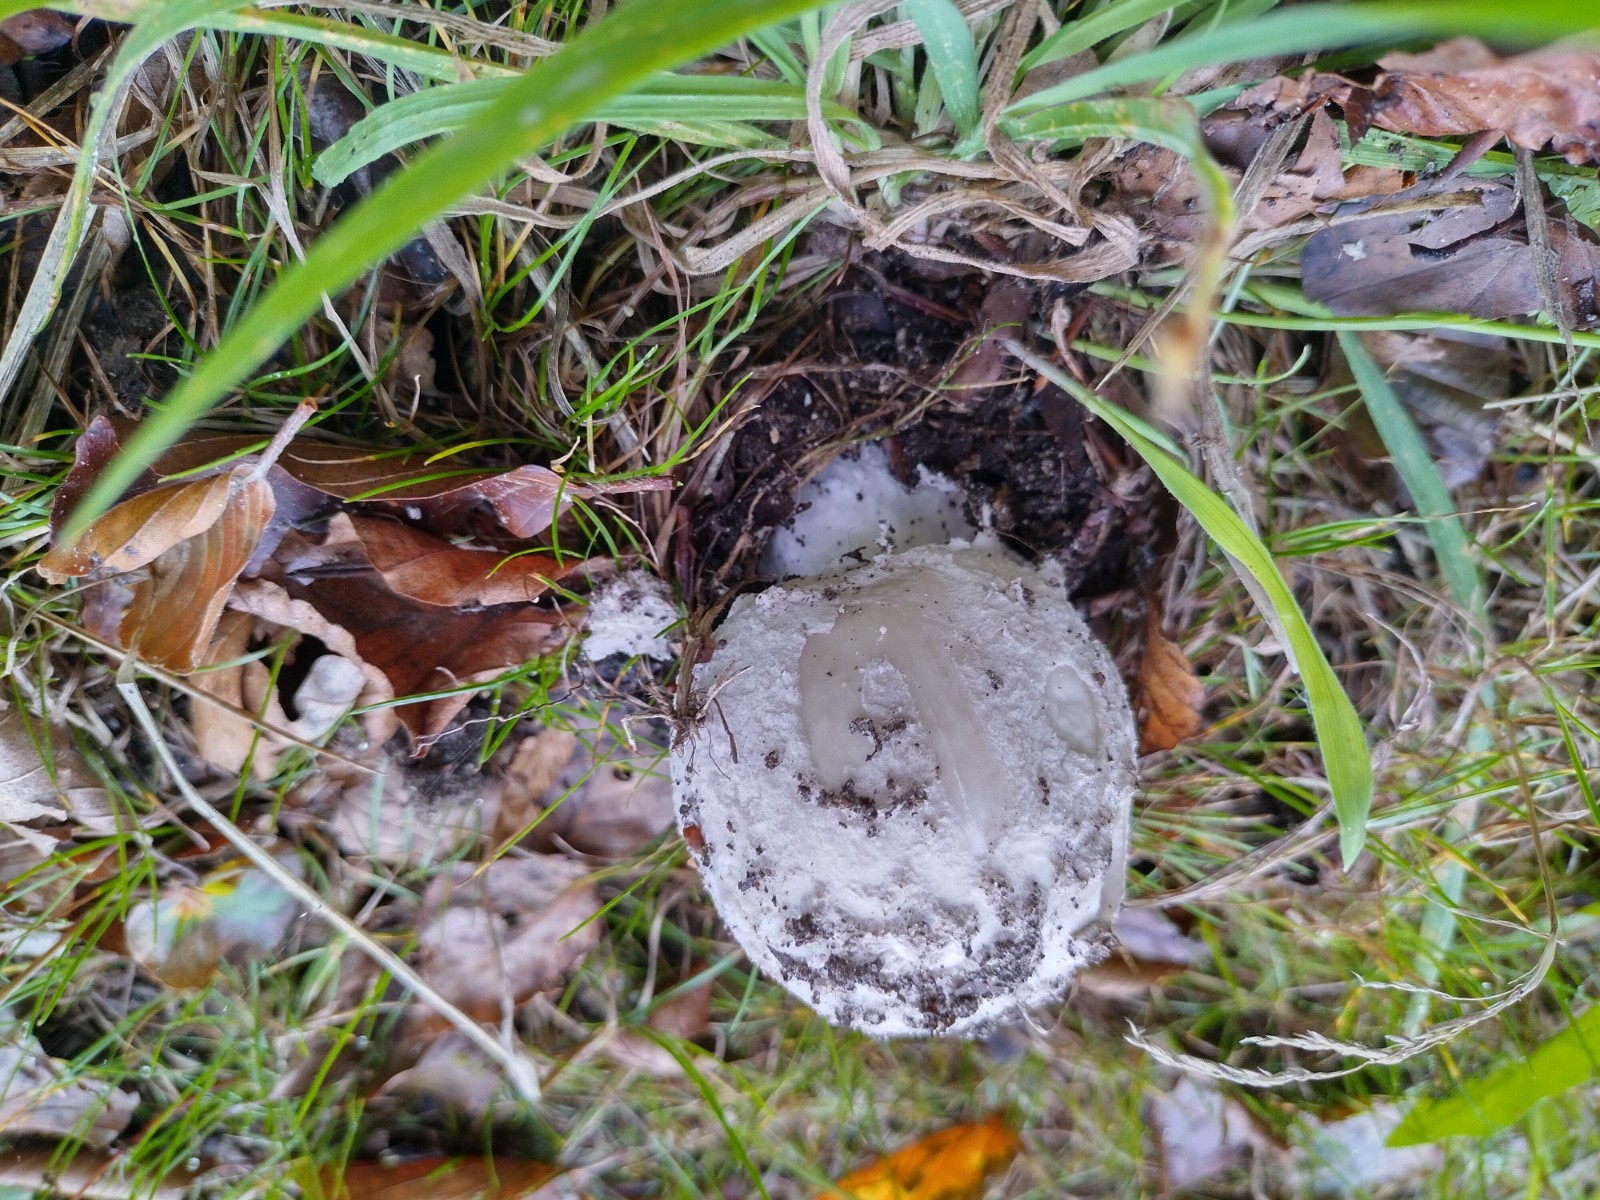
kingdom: Fungi
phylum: Basidiomycota
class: Agaricomycetes
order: Agaricales
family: Amanitaceae
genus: Amanita
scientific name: Amanita
